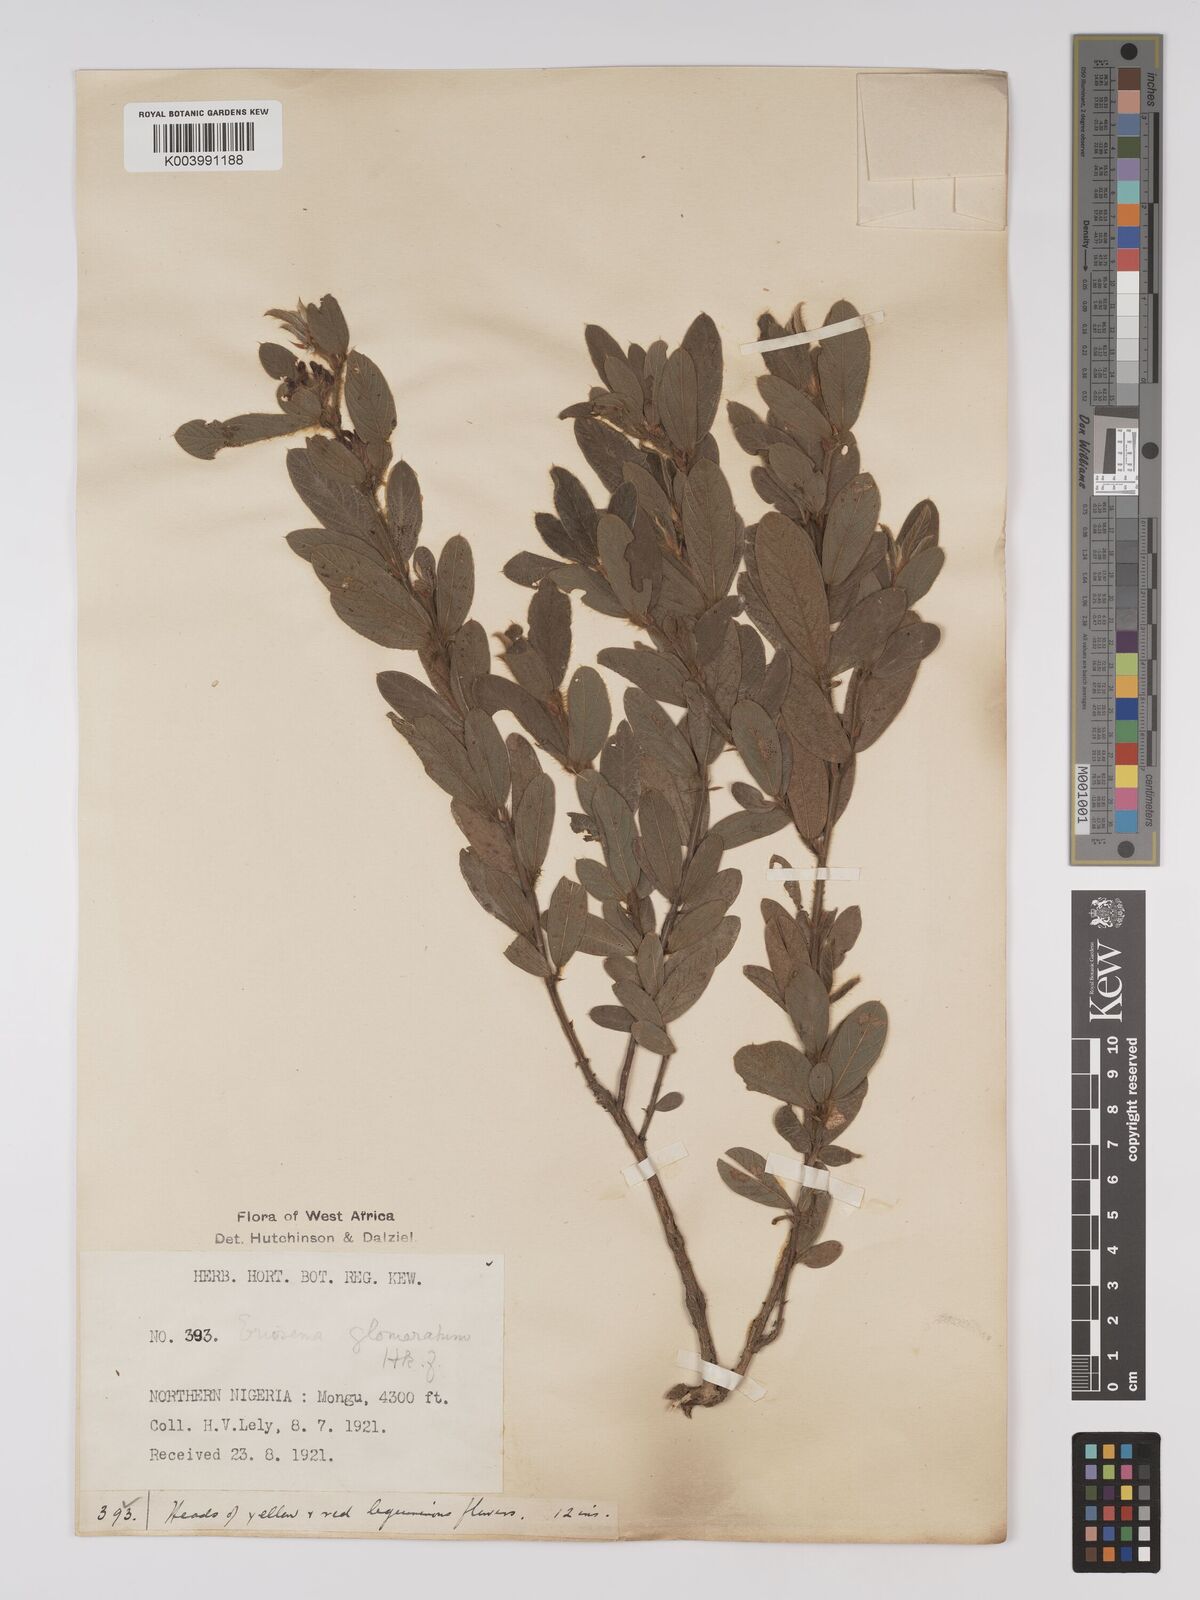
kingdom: Plantae
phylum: Tracheophyta
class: Magnoliopsida
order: Fabales
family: Fabaceae
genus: Eriosema
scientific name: Eriosema glomeratum
